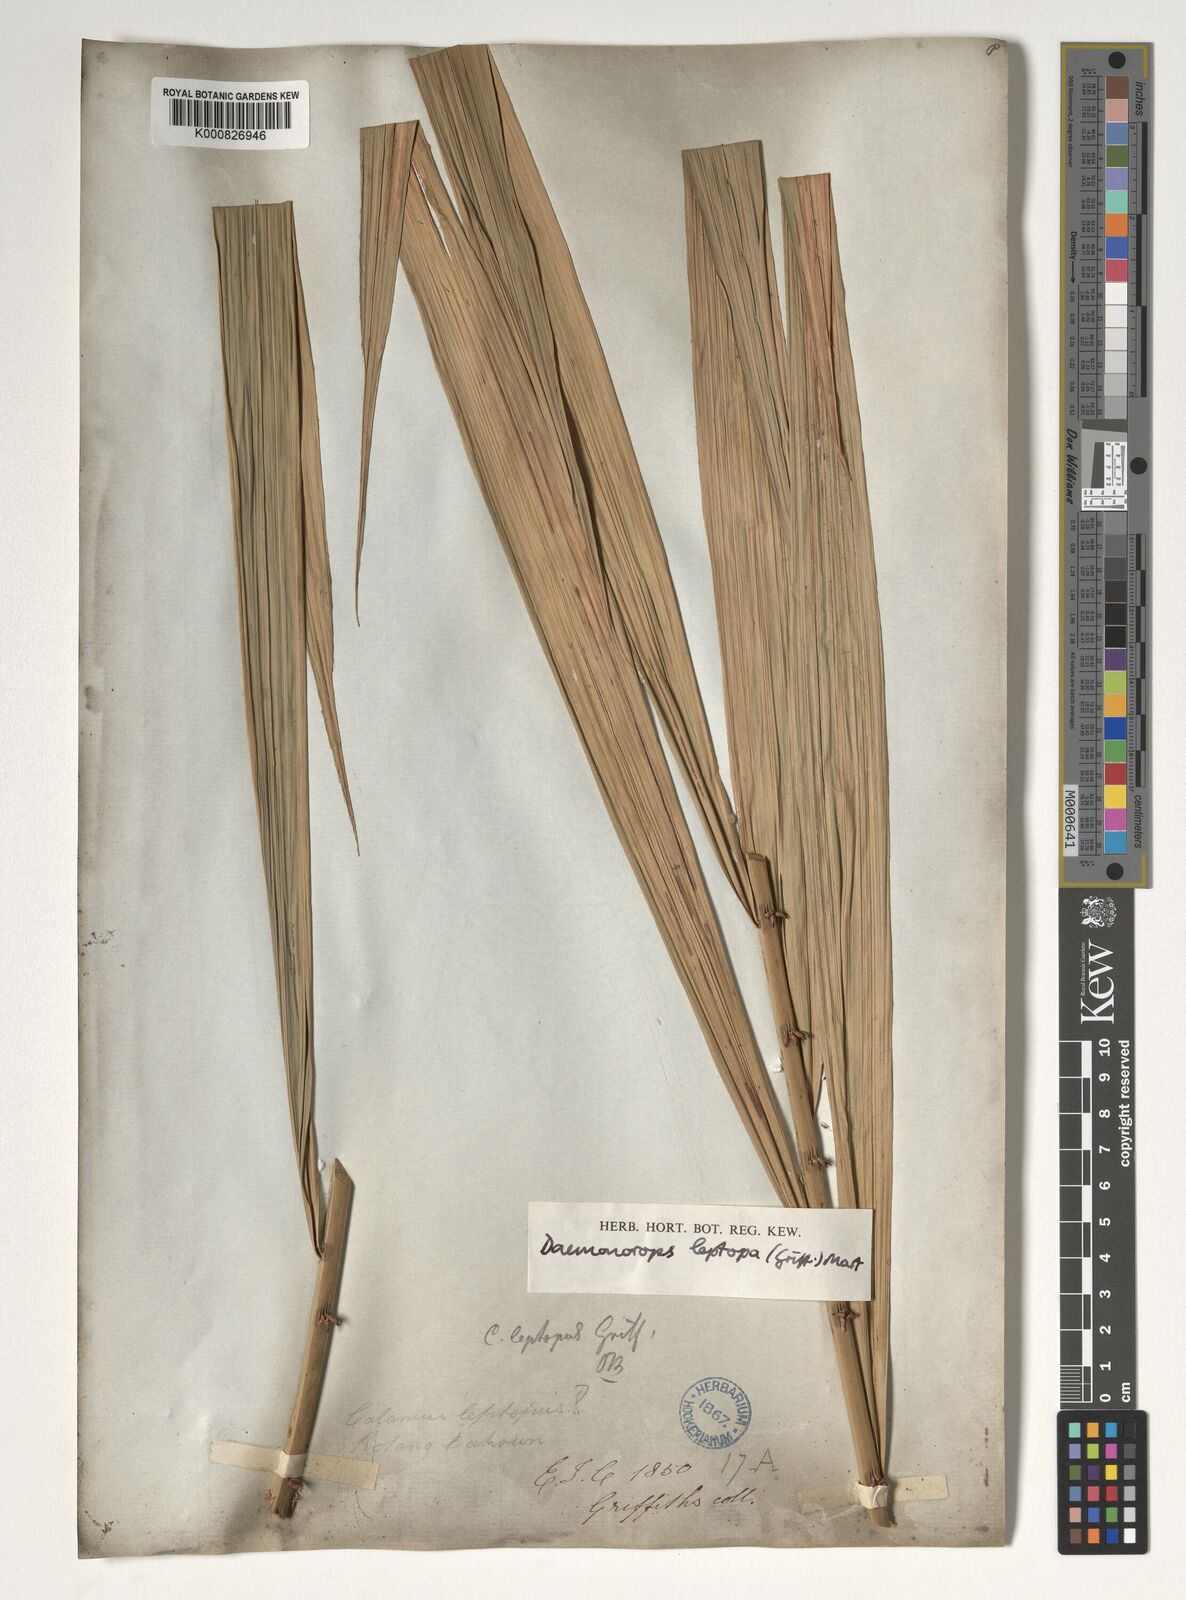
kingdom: Plantae
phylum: Tracheophyta
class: Liliopsida
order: Arecales
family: Arecaceae
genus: Calamus
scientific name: Calamus leptopus
